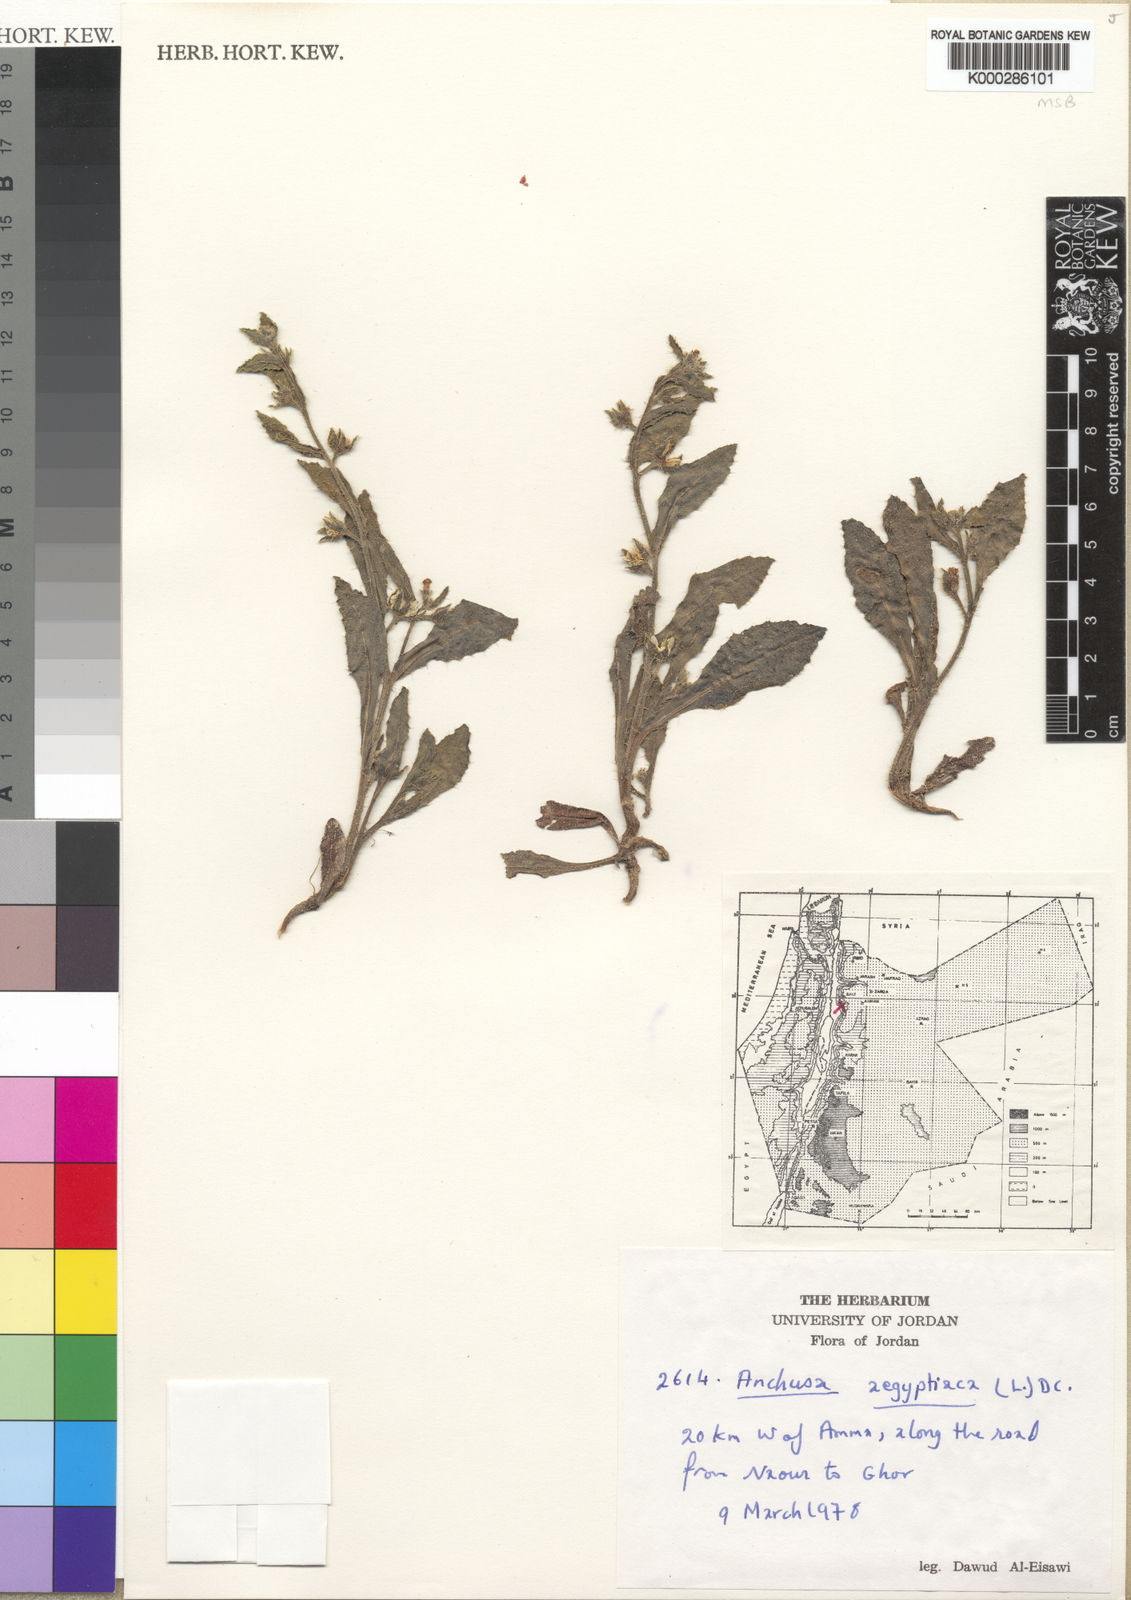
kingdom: Plantae
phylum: Tracheophyta
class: Magnoliopsida
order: Boraginales
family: Boraginaceae
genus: Lycopsis
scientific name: Lycopsis aegyptiaca
